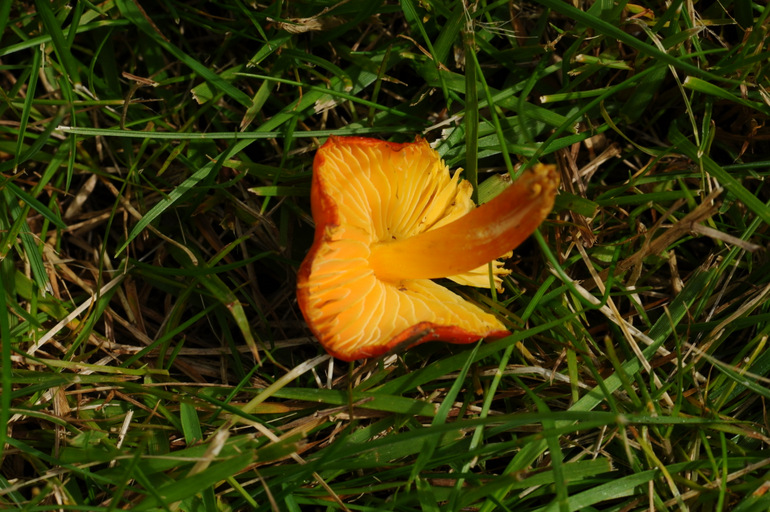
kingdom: Fungi
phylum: Basidiomycota
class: Agaricomycetes
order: Agaricales
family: Hygrophoraceae
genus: Hygrocybe
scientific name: Hygrocybe acutoconica
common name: spidspuklet vokshat
